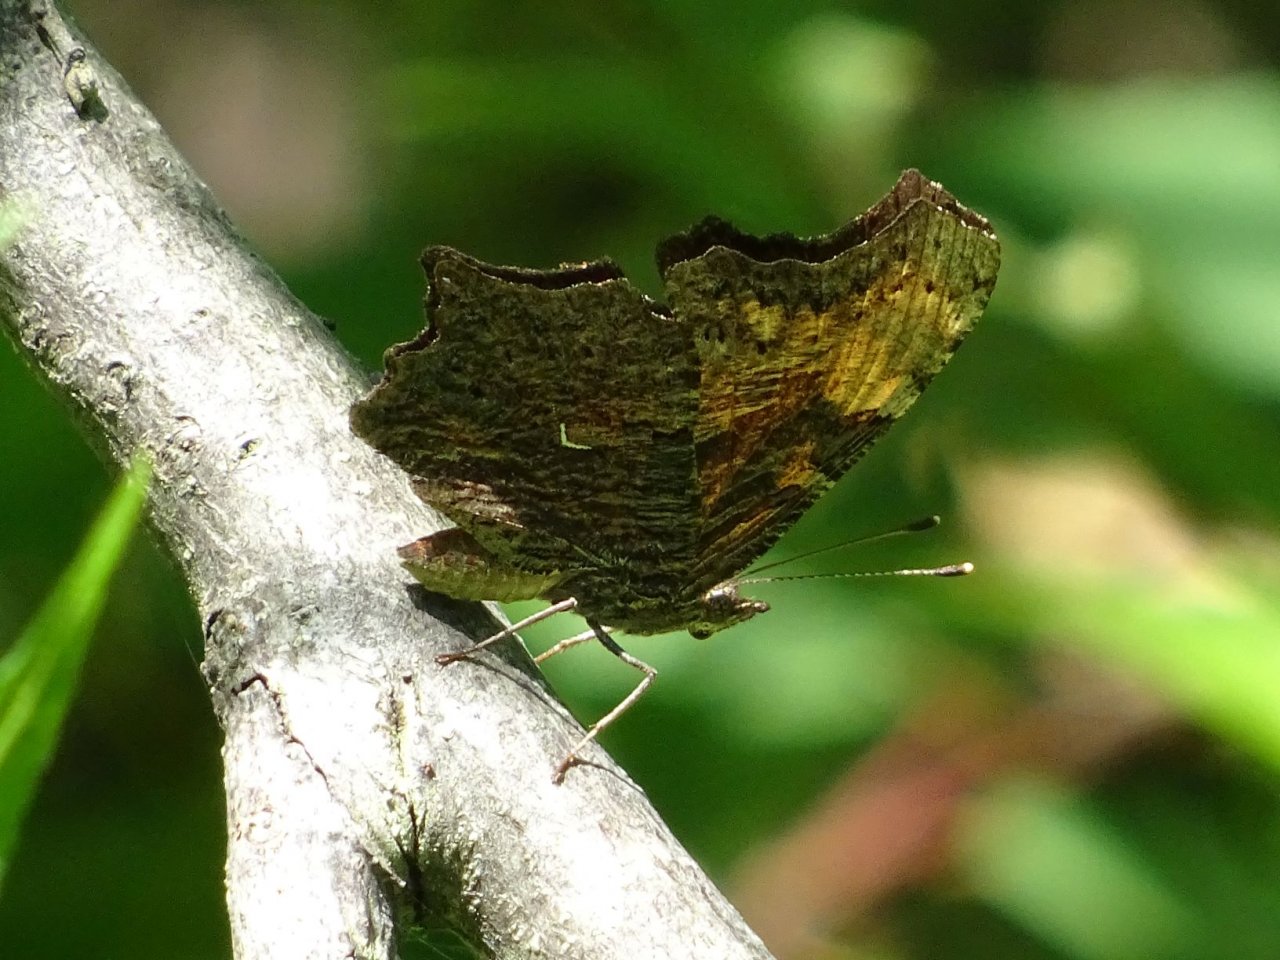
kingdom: Animalia
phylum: Arthropoda
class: Insecta
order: Lepidoptera
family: Nymphalidae
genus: Polygonia
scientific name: Polygonia progne
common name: Gray Comma
